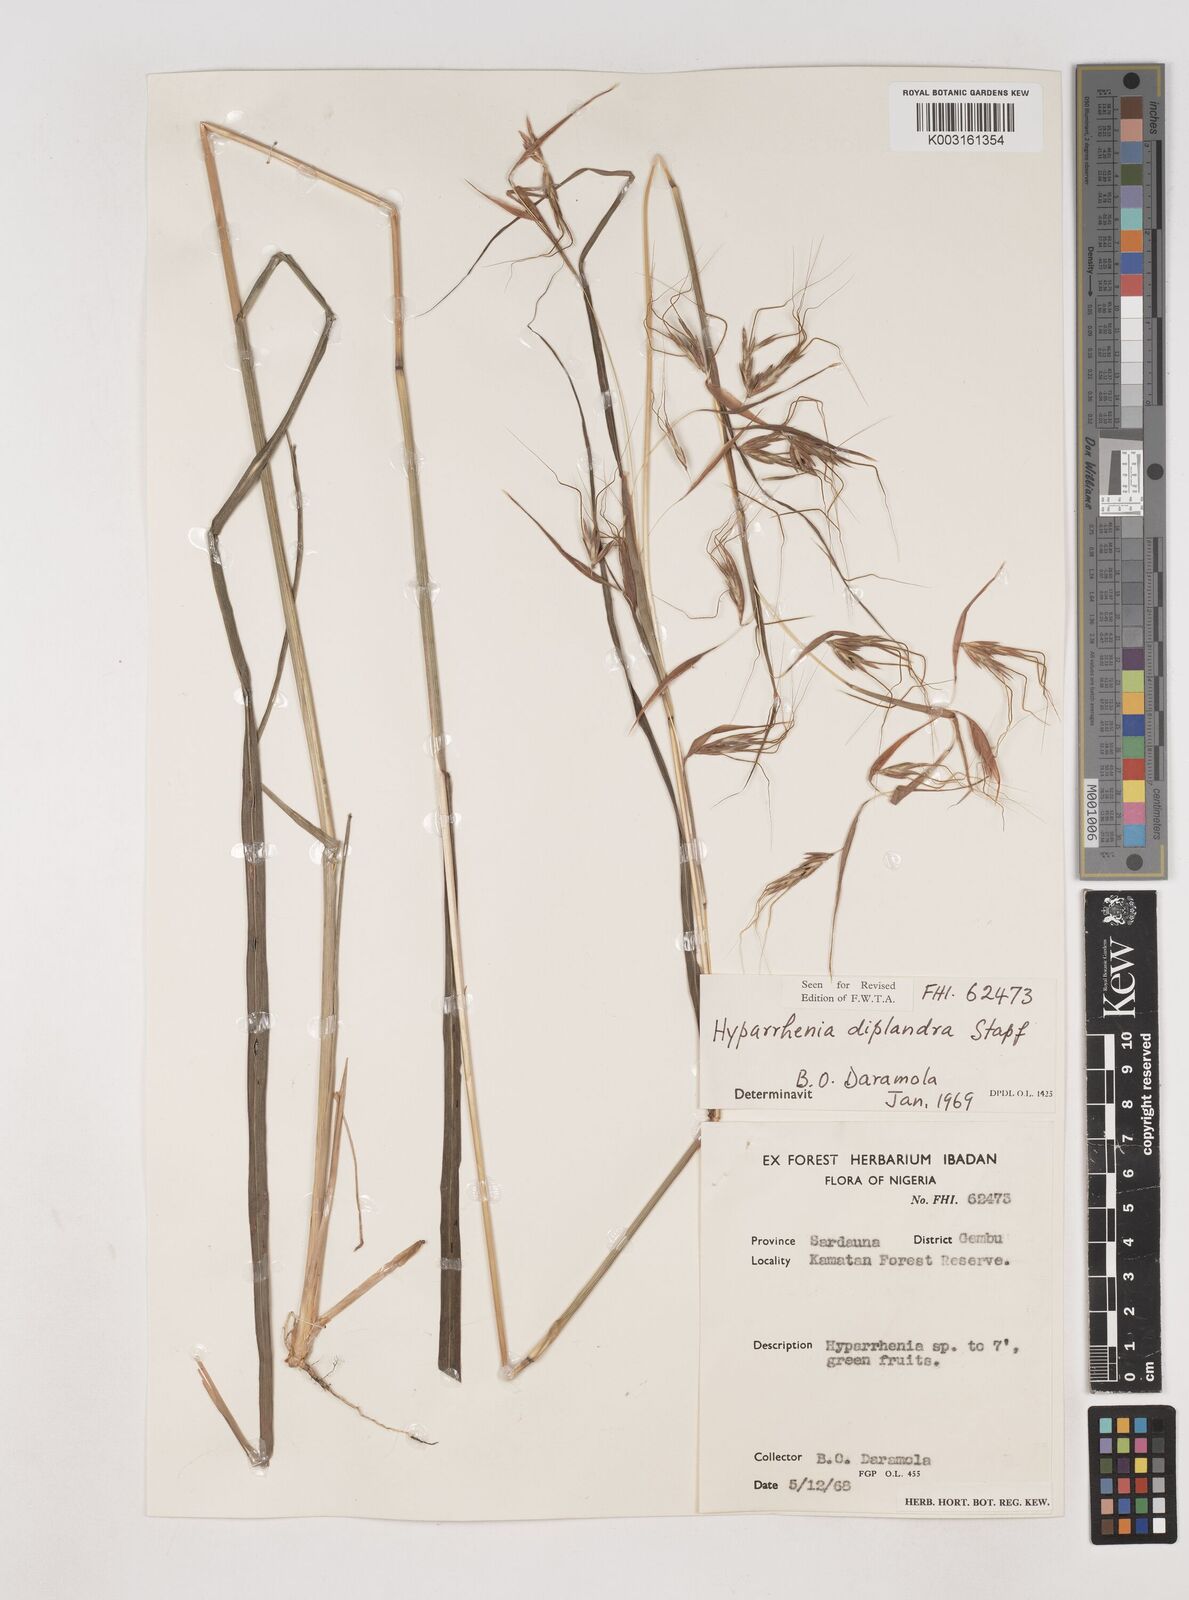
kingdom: Plantae
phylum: Tracheophyta
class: Liliopsida
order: Poales
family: Poaceae
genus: Hyparrhenia
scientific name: Hyparrhenia subplumosa
